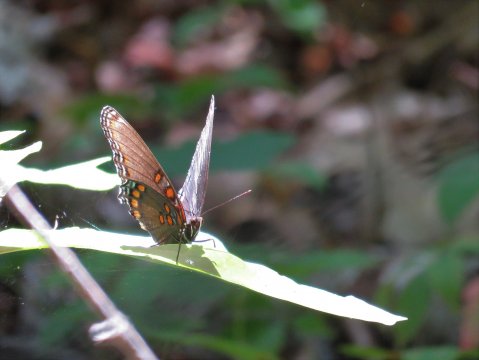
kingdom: Animalia
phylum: Arthropoda
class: Insecta
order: Lepidoptera
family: Nymphalidae
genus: Limenitis
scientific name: Limenitis arthemis
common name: Red-spotted Admiral
